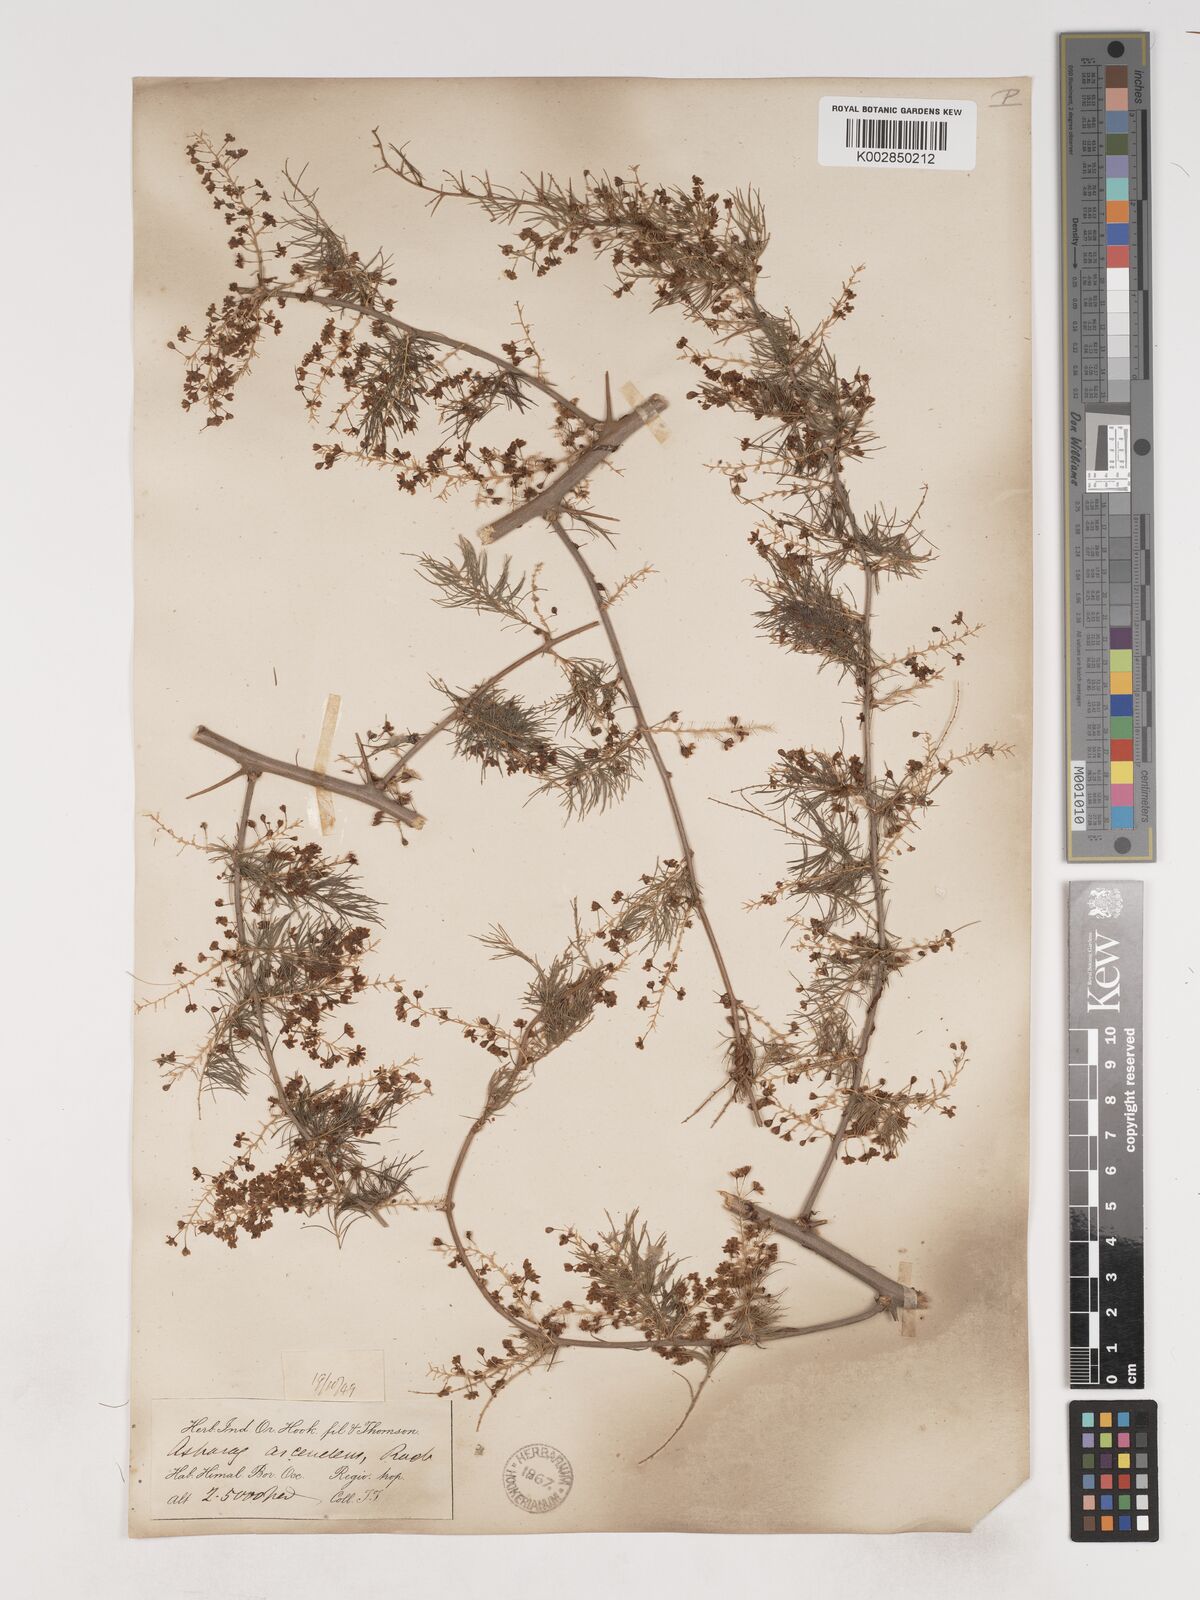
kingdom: Plantae
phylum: Tracheophyta
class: Liliopsida
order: Asparagales
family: Asparagaceae
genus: Asparagus
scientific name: Asparagus adscendens
